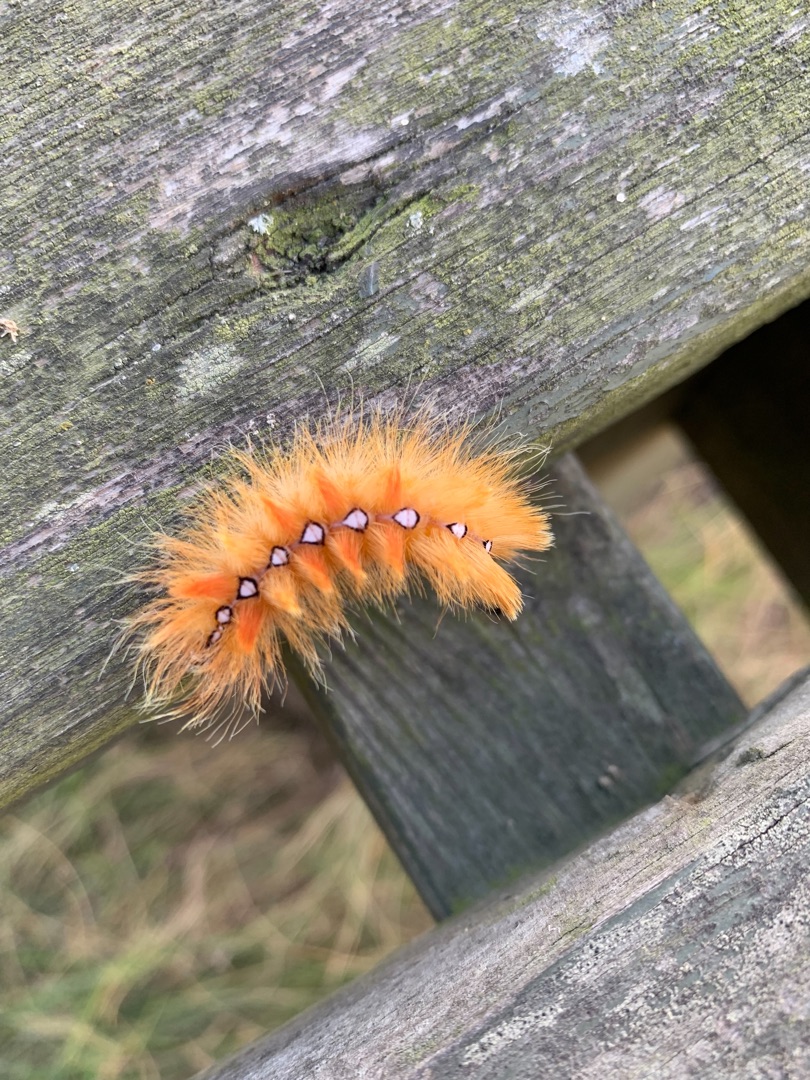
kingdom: Animalia
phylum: Arthropoda
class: Insecta
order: Lepidoptera
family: Noctuidae
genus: Acronicta
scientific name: Acronicta aceris
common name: Ahornugle
